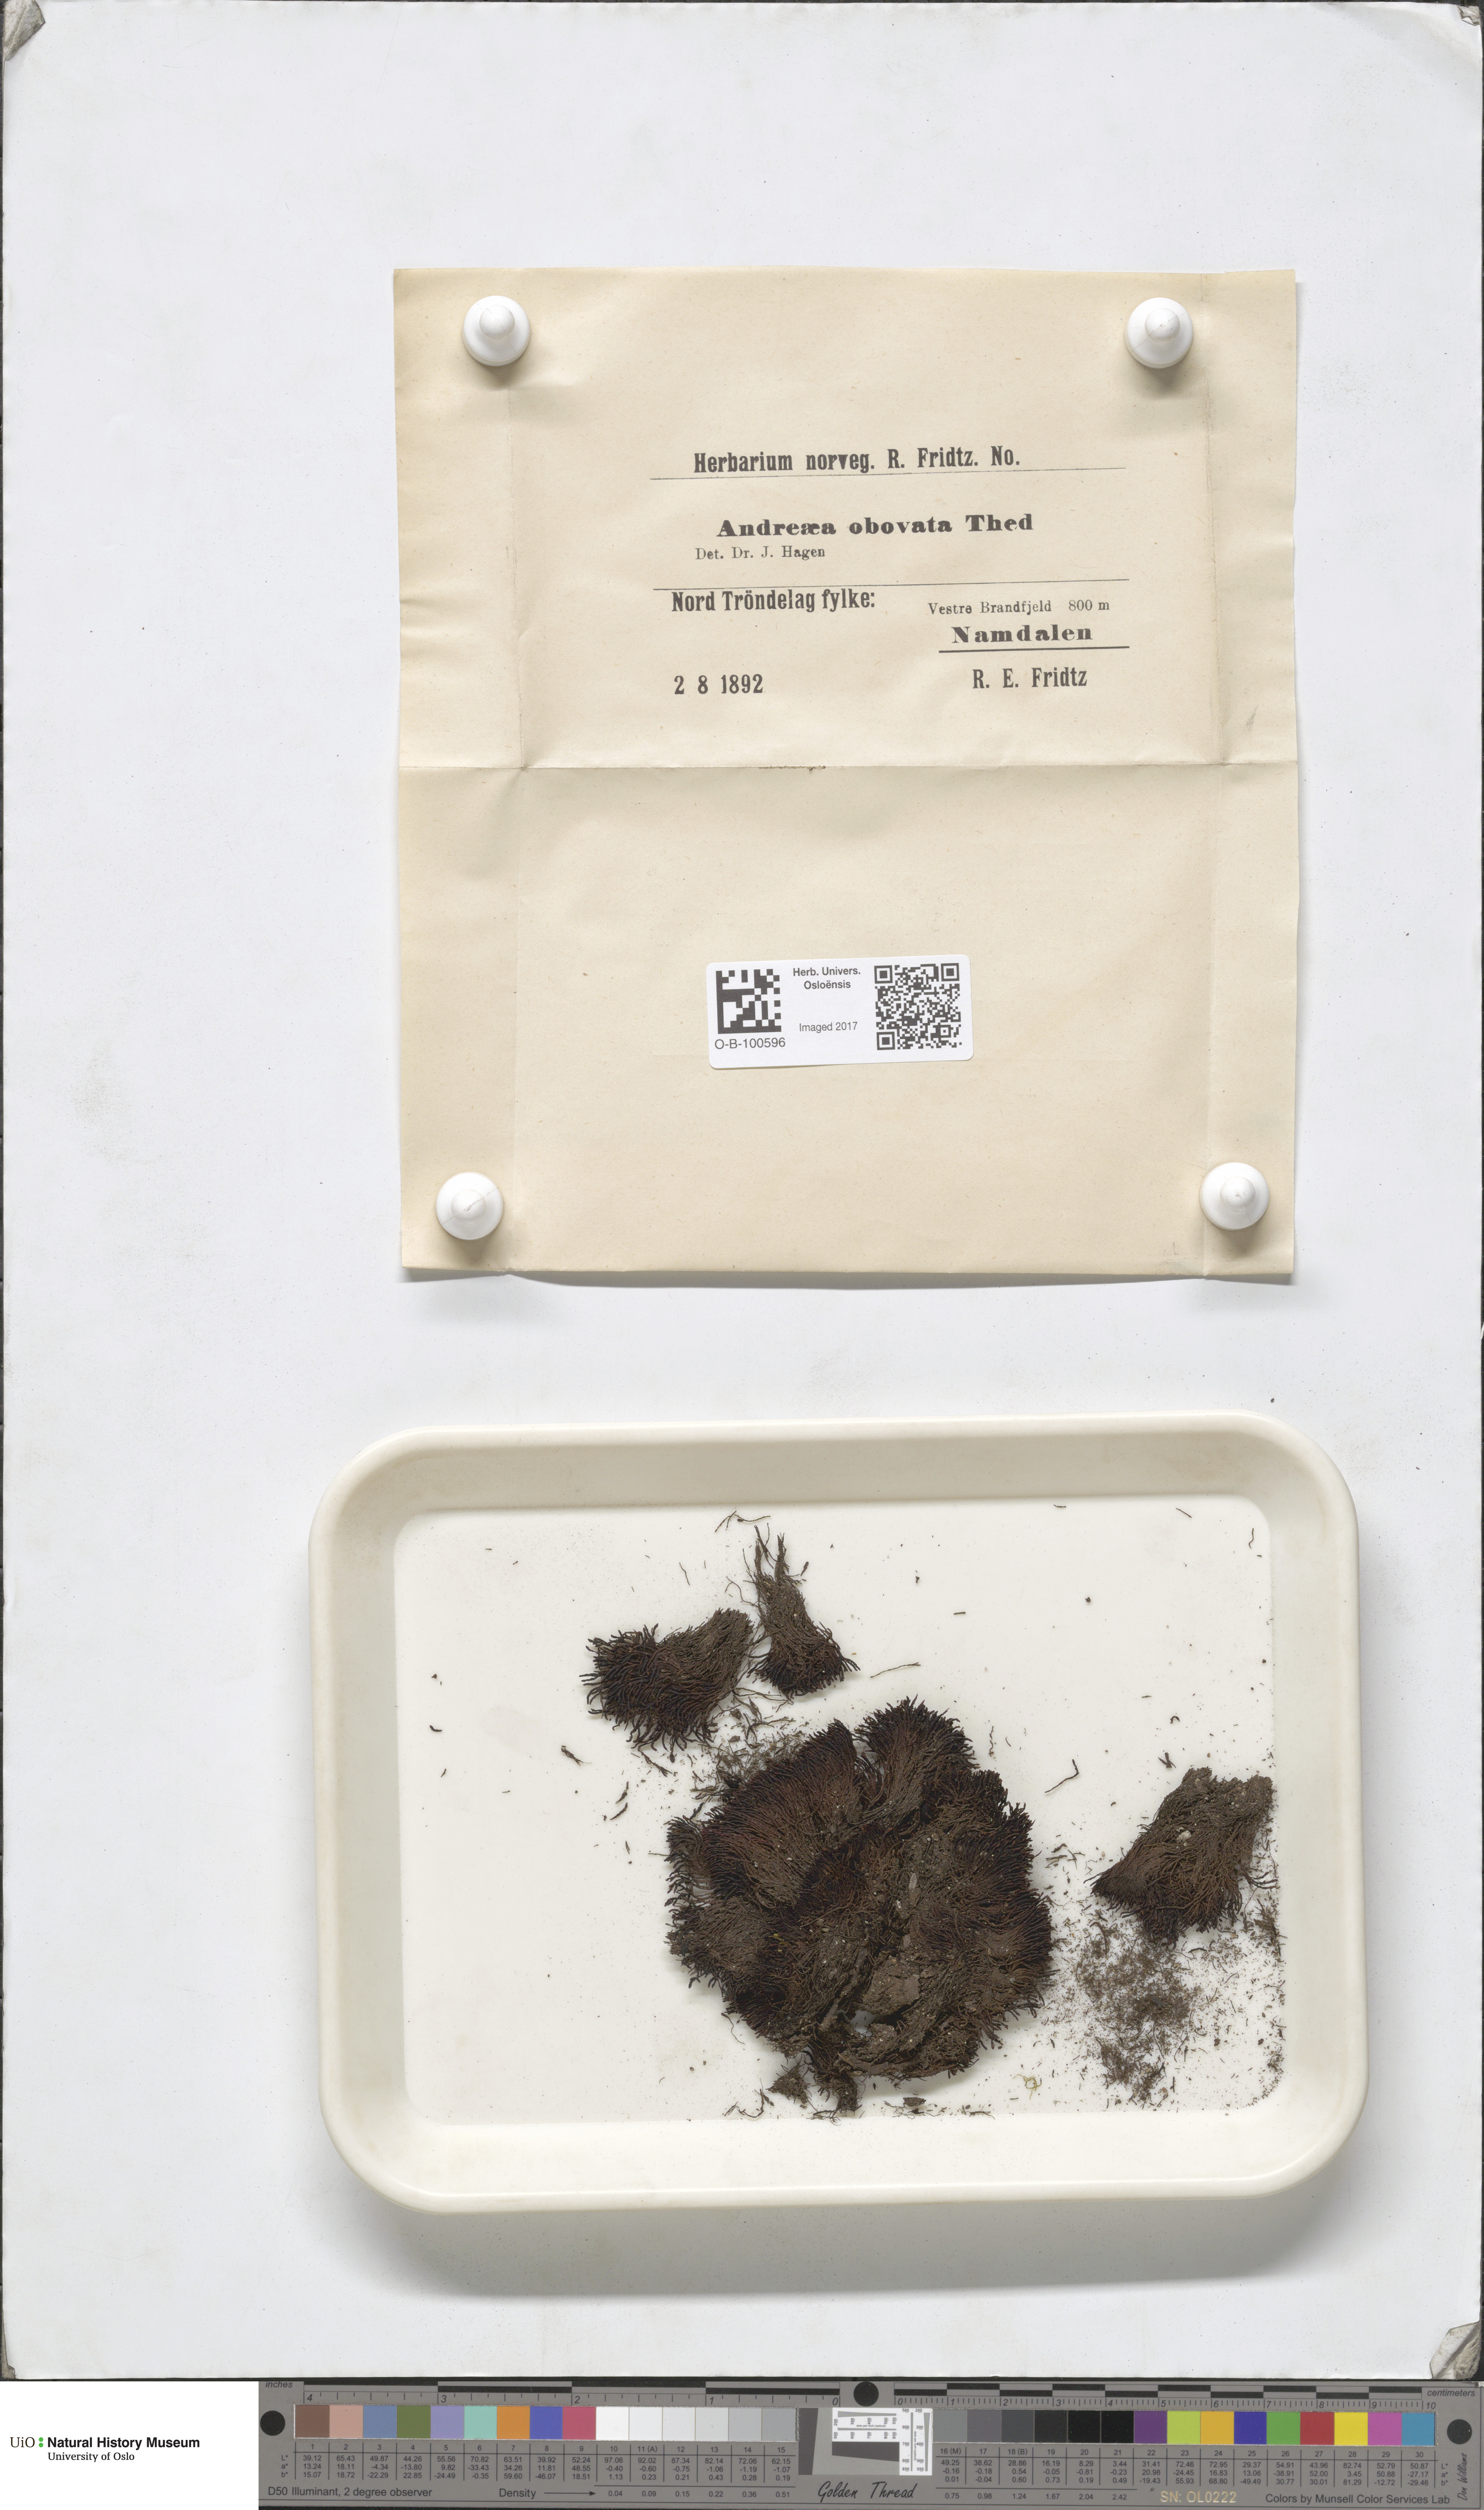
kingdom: Plantae
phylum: Bryophyta
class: Andreaeopsida
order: Andreaeales
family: Andreaeaceae
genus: Andreaea
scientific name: Andreaea alpina
